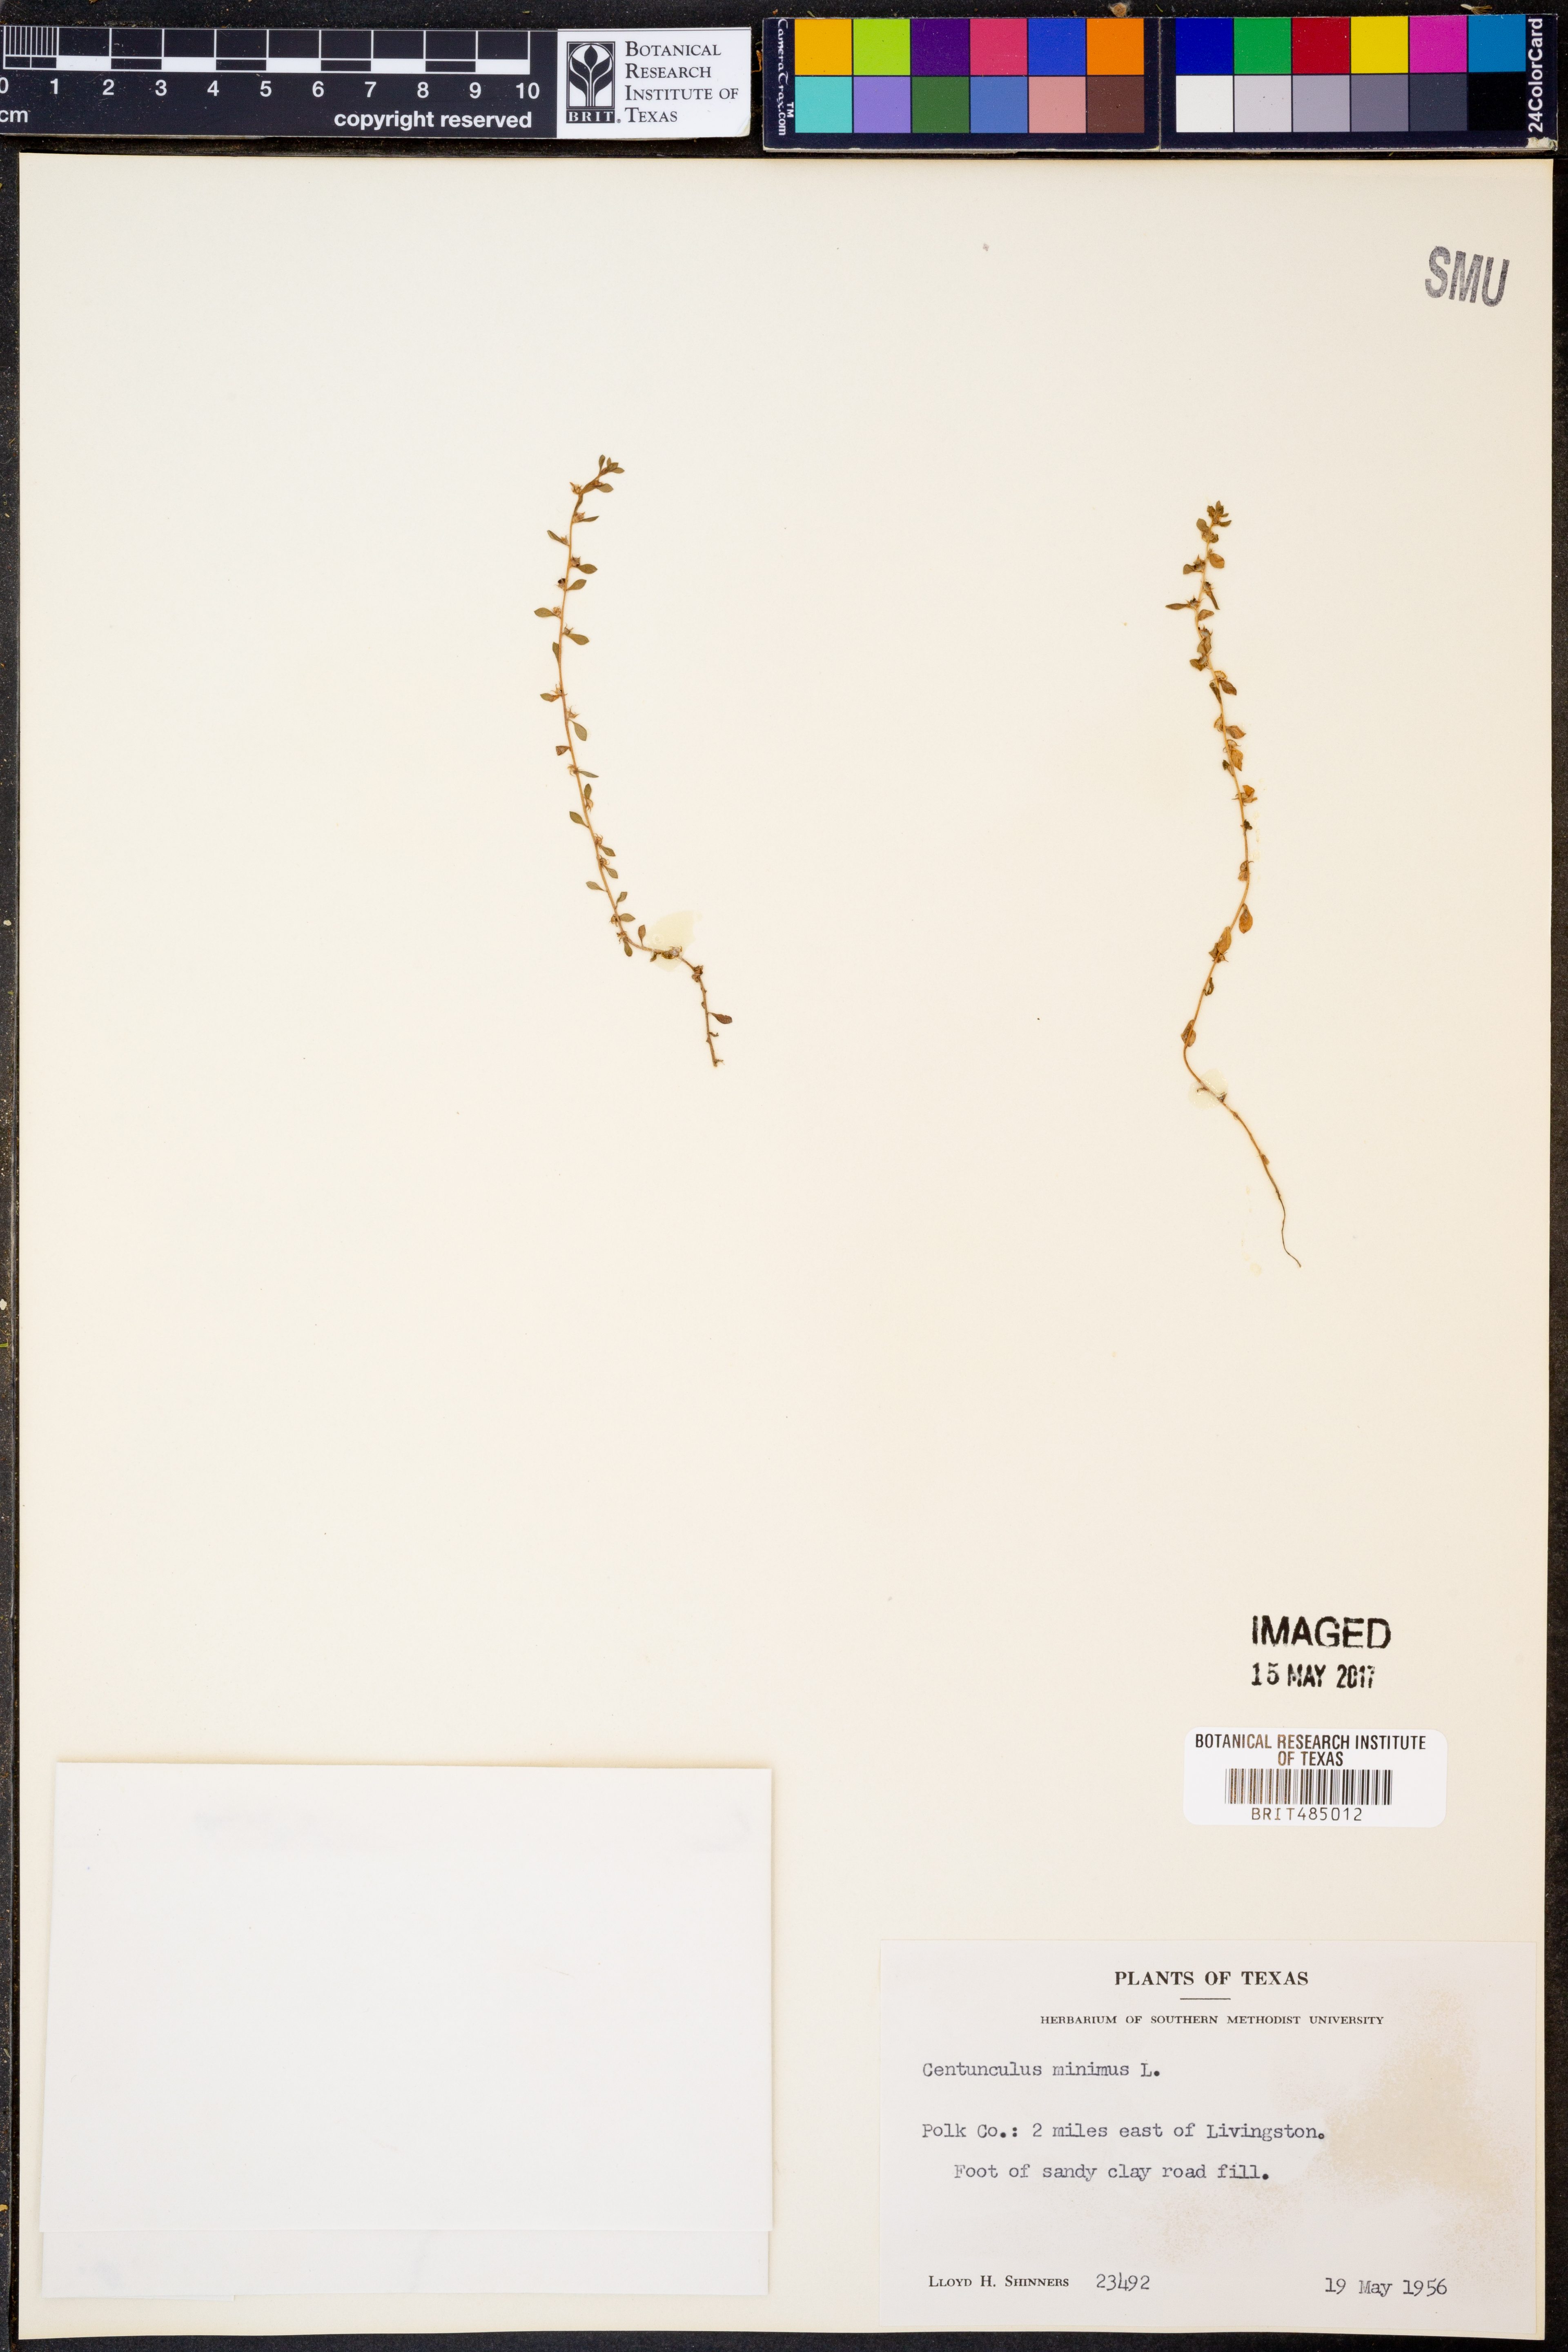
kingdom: Plantae
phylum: Tracheophyta
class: Magnoliopsida
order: Ericales
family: Primulaceae
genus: Lysimachia
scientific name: Lysimachia minima
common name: Chaffweed
